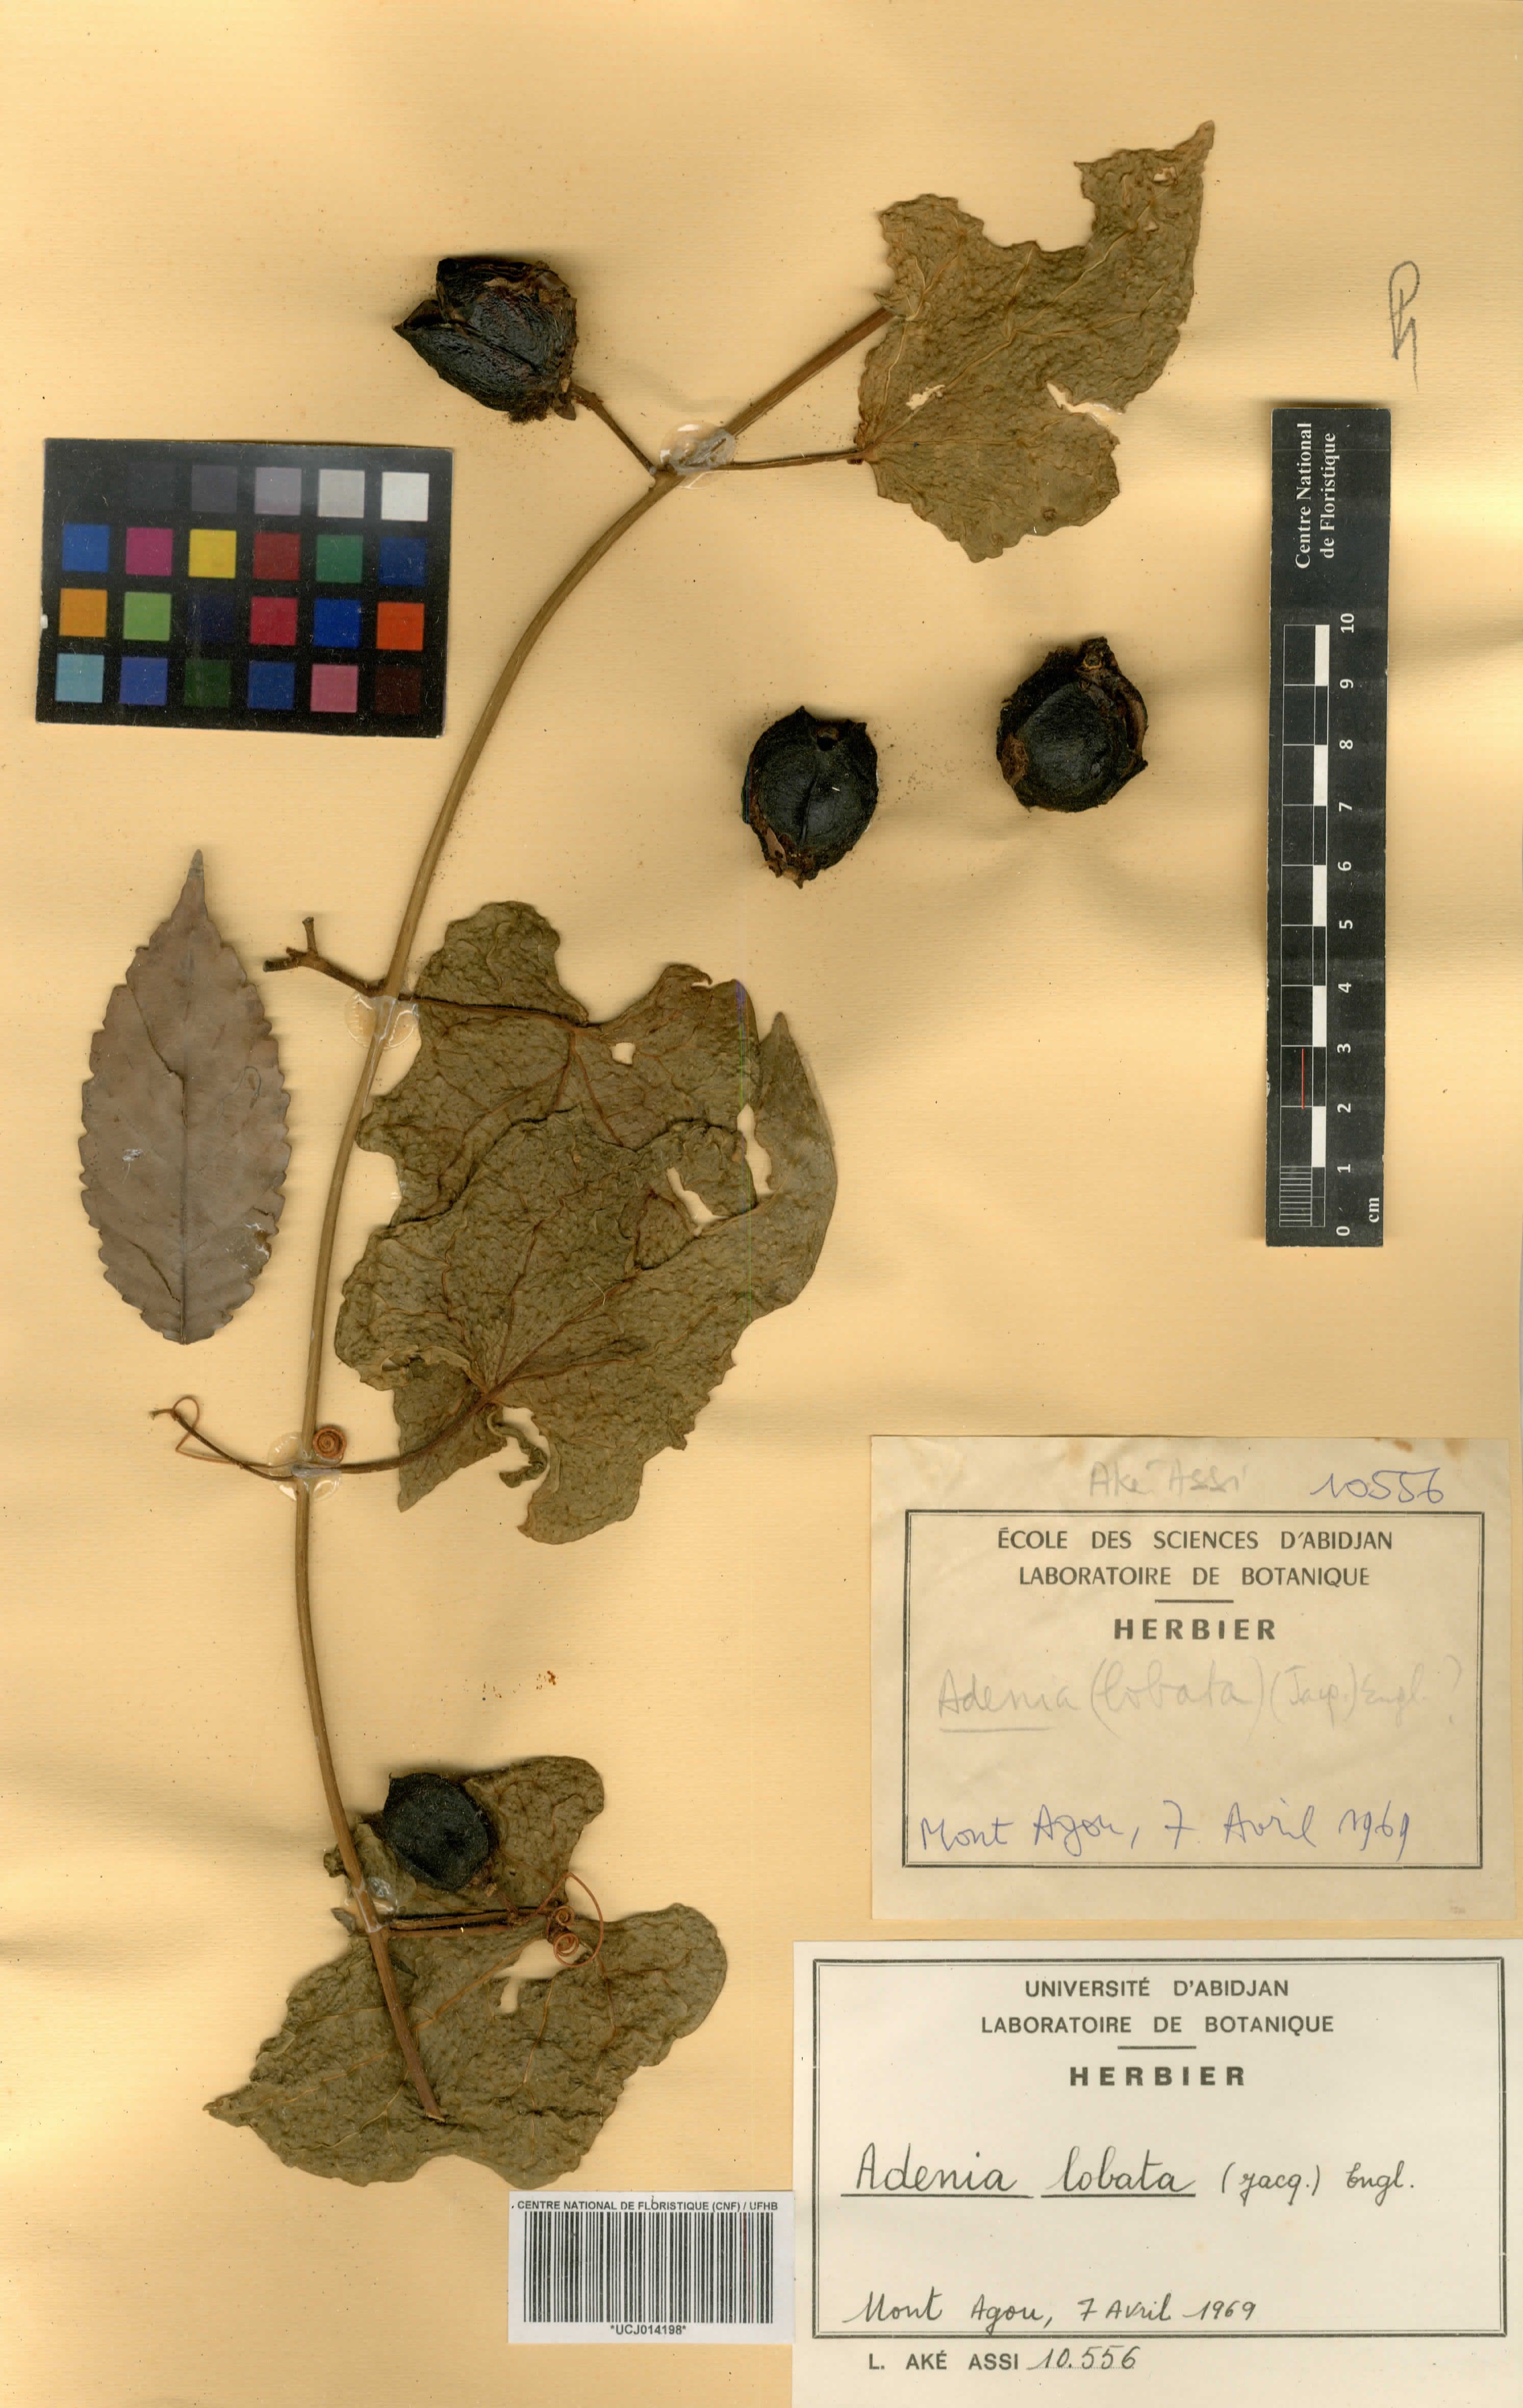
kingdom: Plantae
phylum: Tracheophyta
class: Magnoliopsida
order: Malpighiales
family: Passifloraceae
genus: Adenia
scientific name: Adenia lobata
